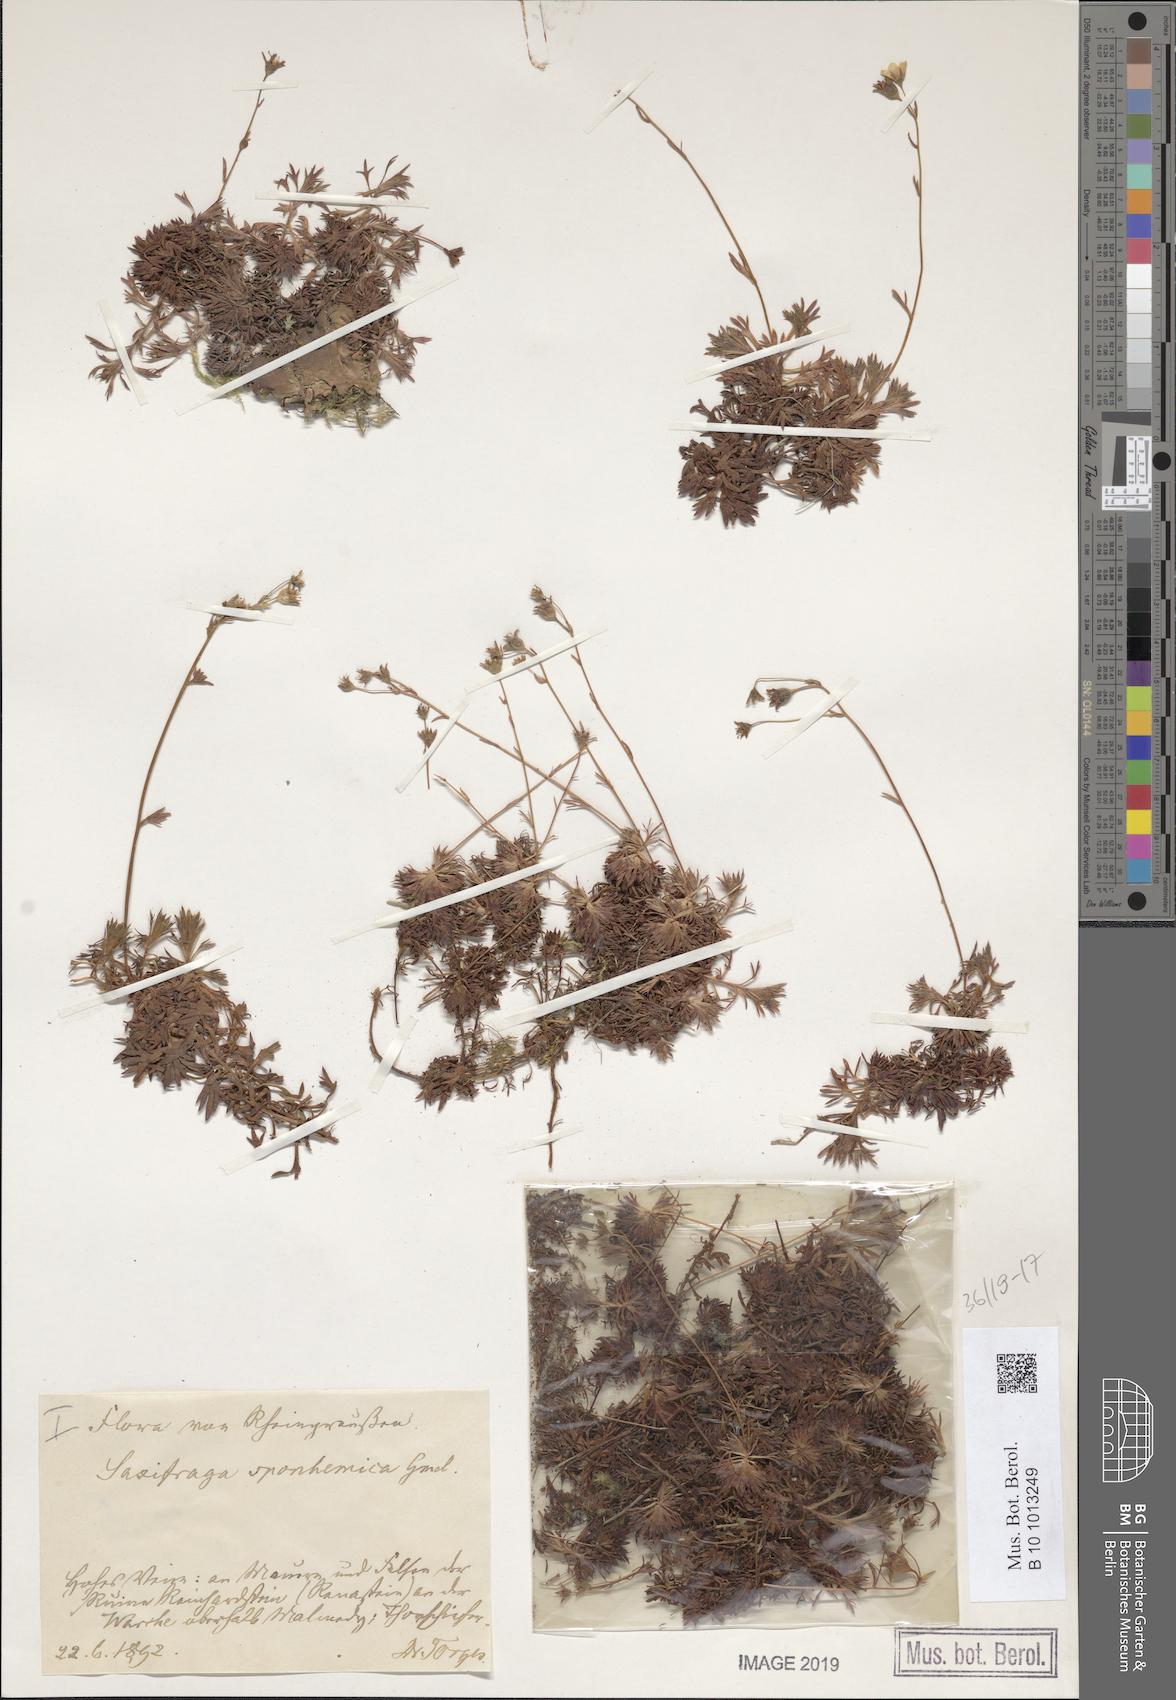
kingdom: Plantae
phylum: Tracheophyta
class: Magnoliopsida
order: Saxifragales
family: Saxifragaceae
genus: Saxifraga
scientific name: Saxifraga rosacea
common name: Irish saxifrage
